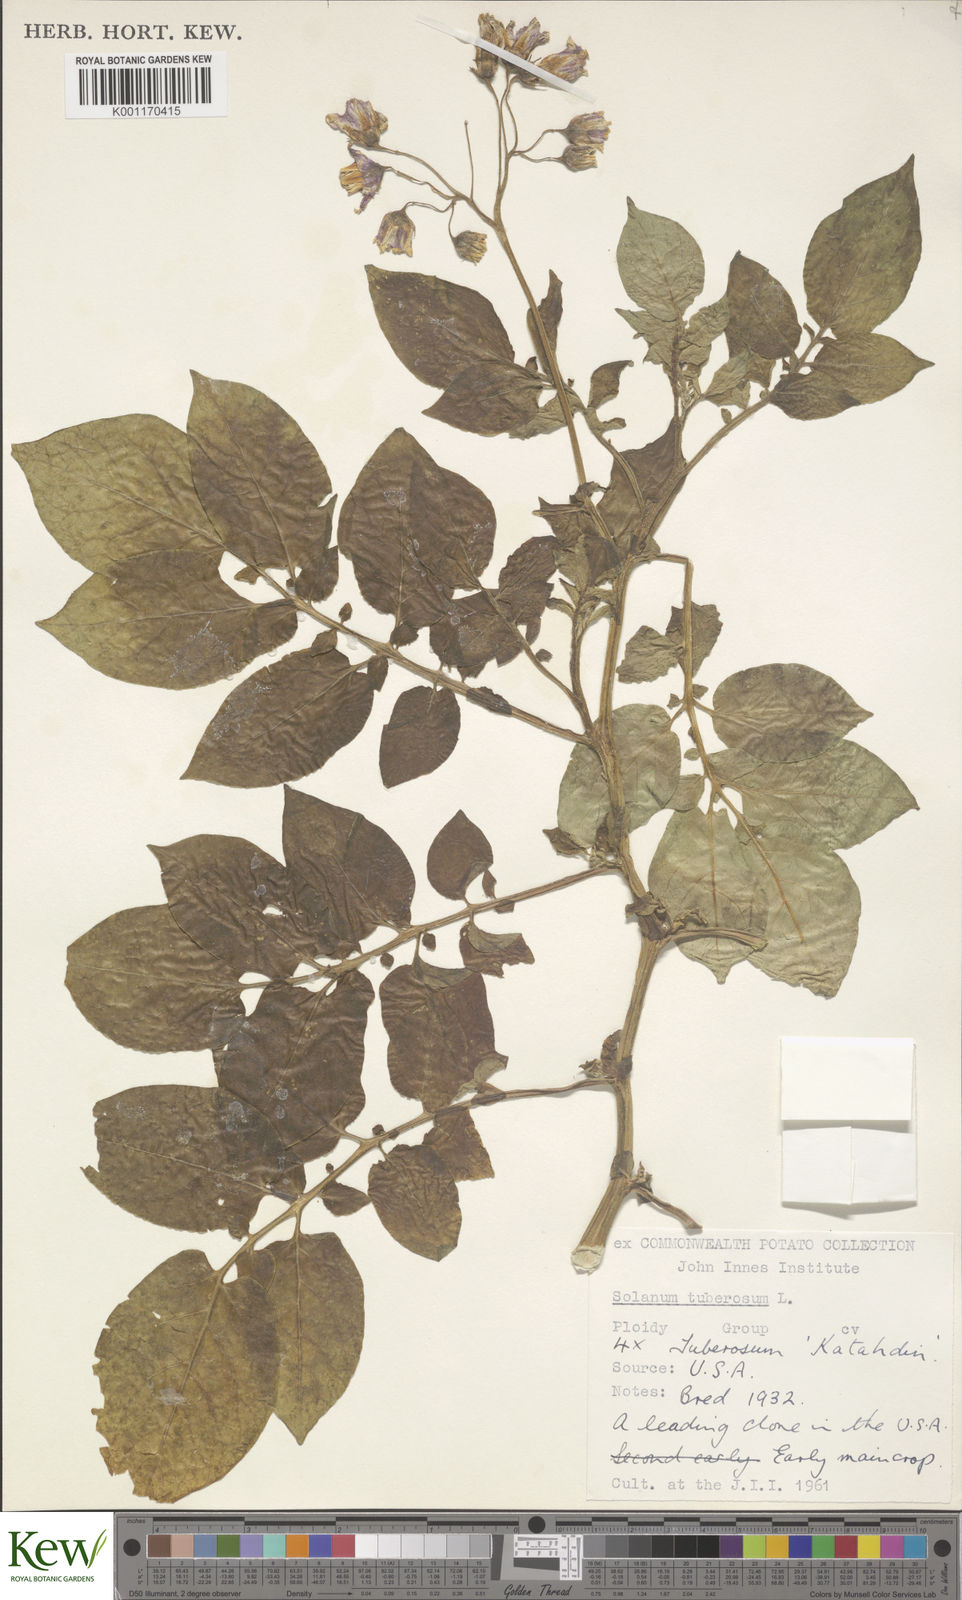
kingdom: Plantae
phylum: Tracheophyta
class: Magnoliopsida
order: Solanales
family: Solanaceae
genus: Solanum
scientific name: Solanum tuberosum
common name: Potato
